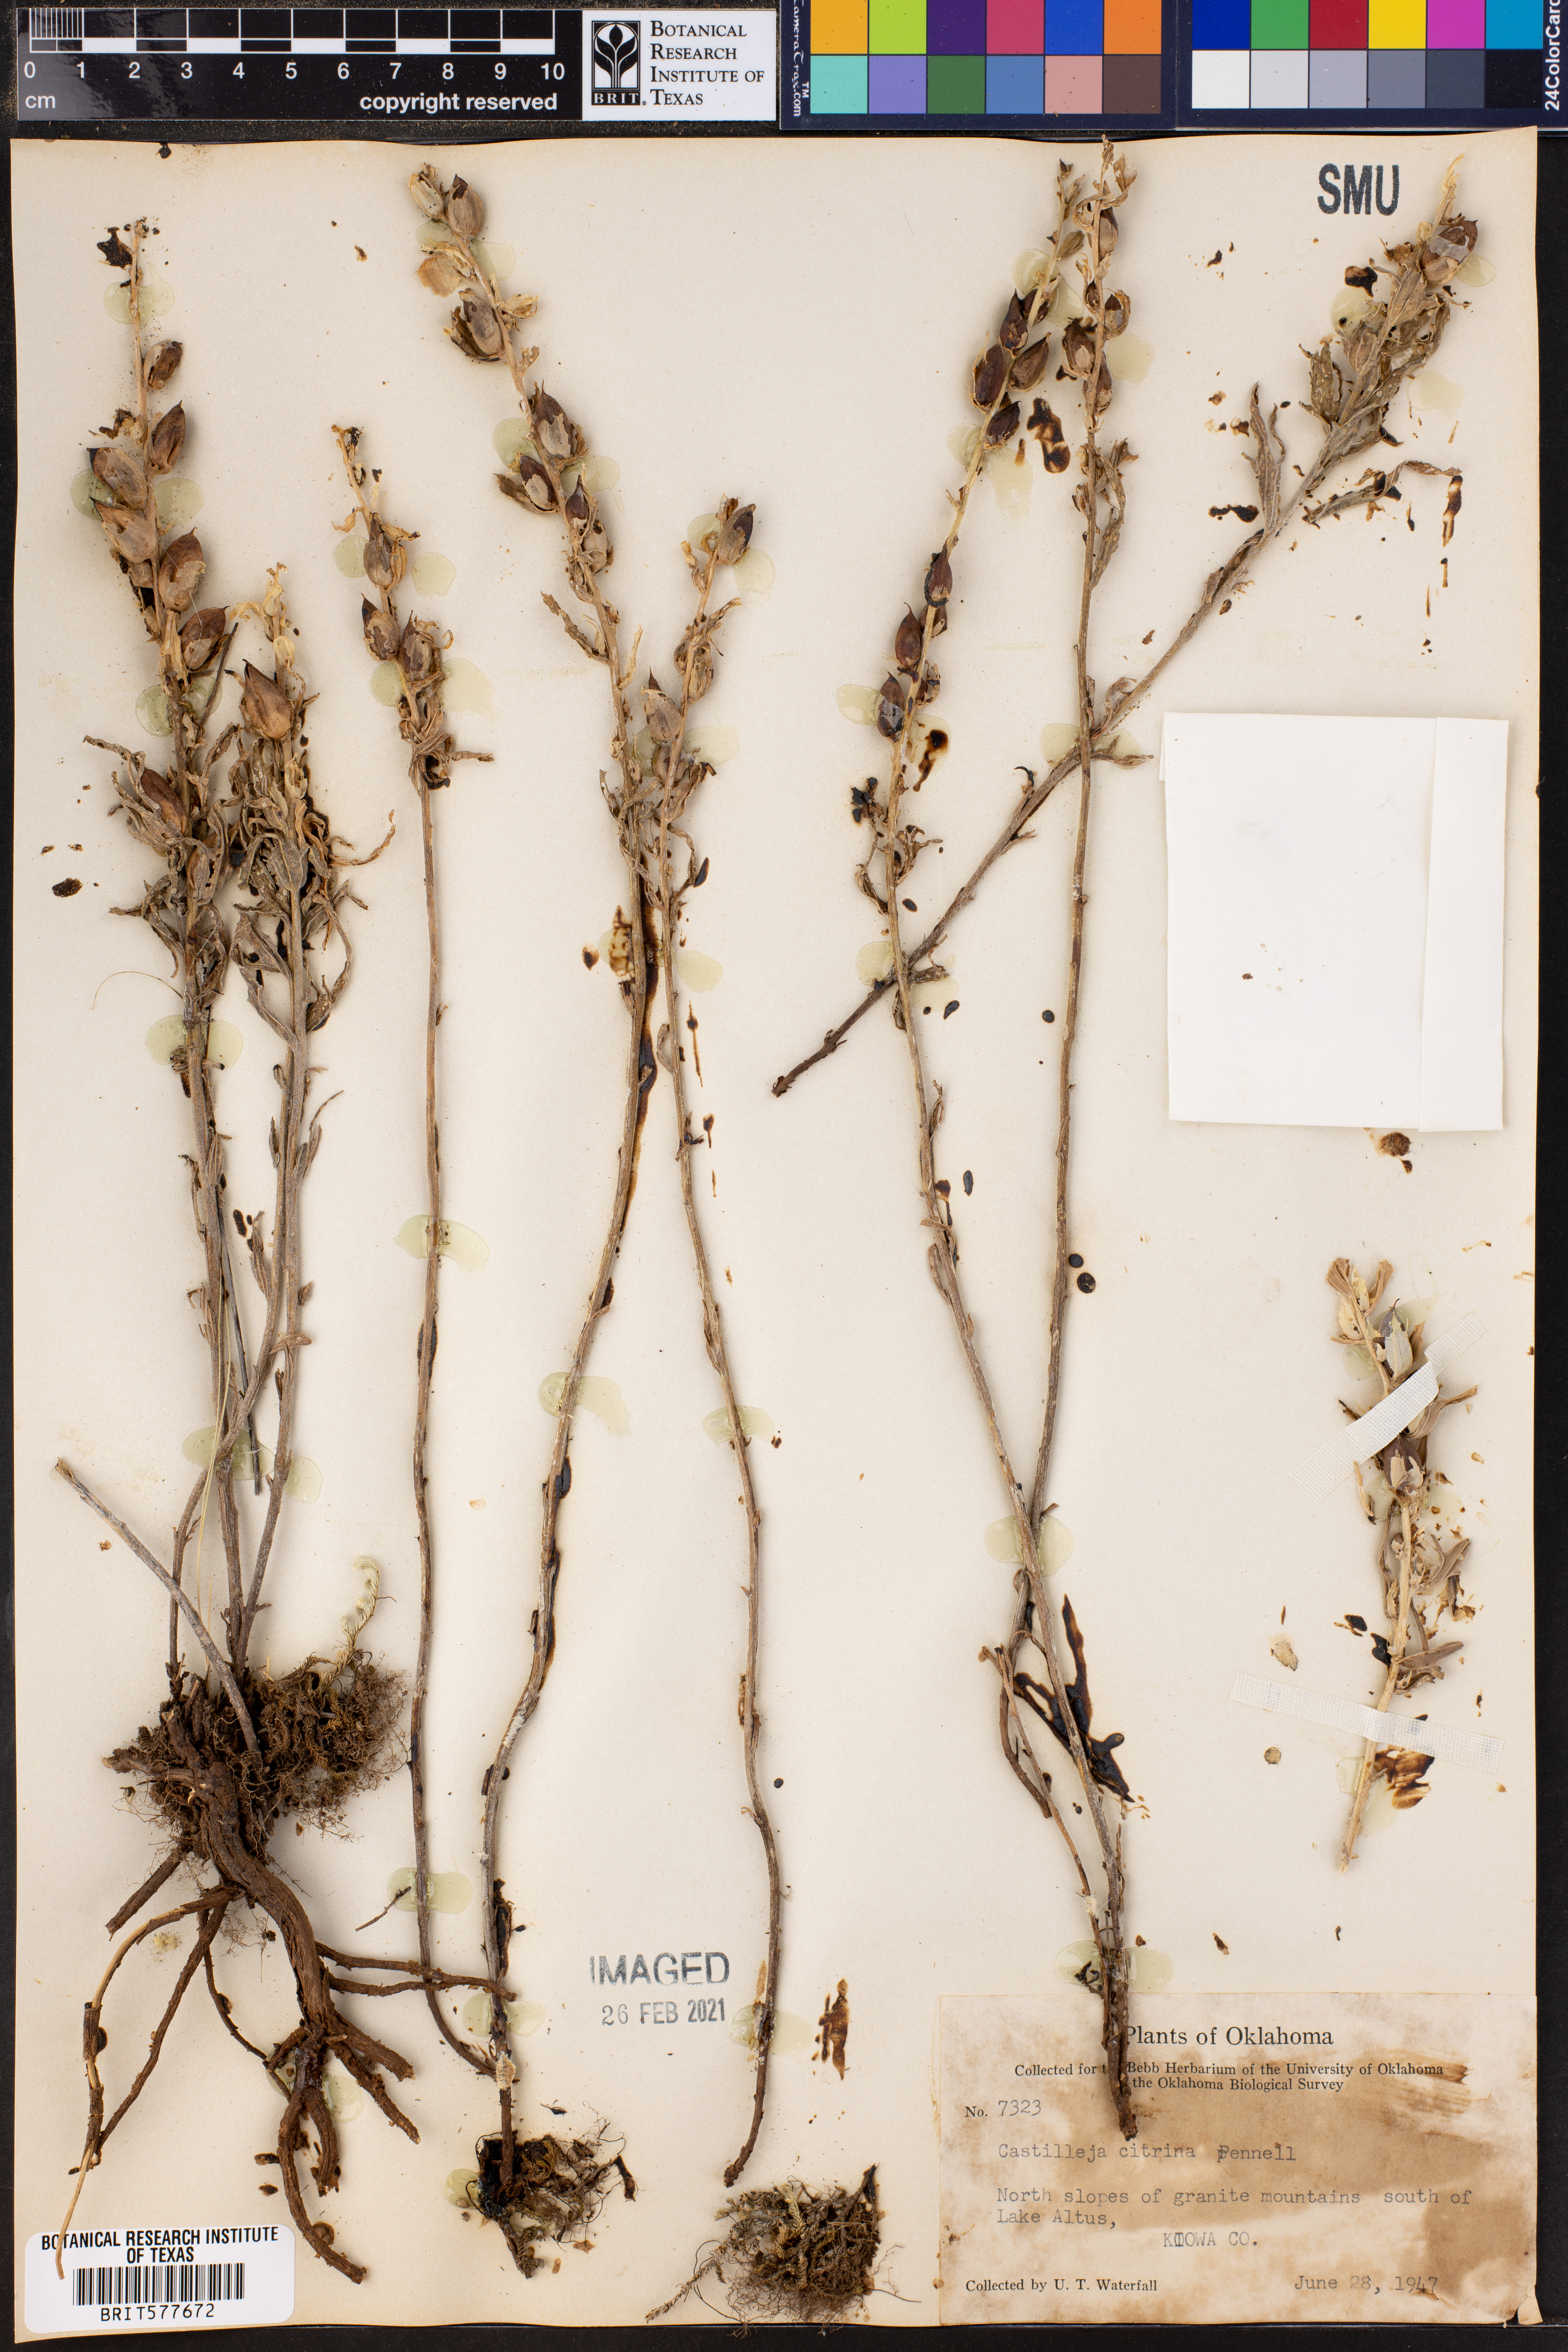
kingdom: Plantae
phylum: Tracheophyta
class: Magnoliopsida
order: Lamiales
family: Orobanchaceae
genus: Castilleja
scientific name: Castilleja citrina
